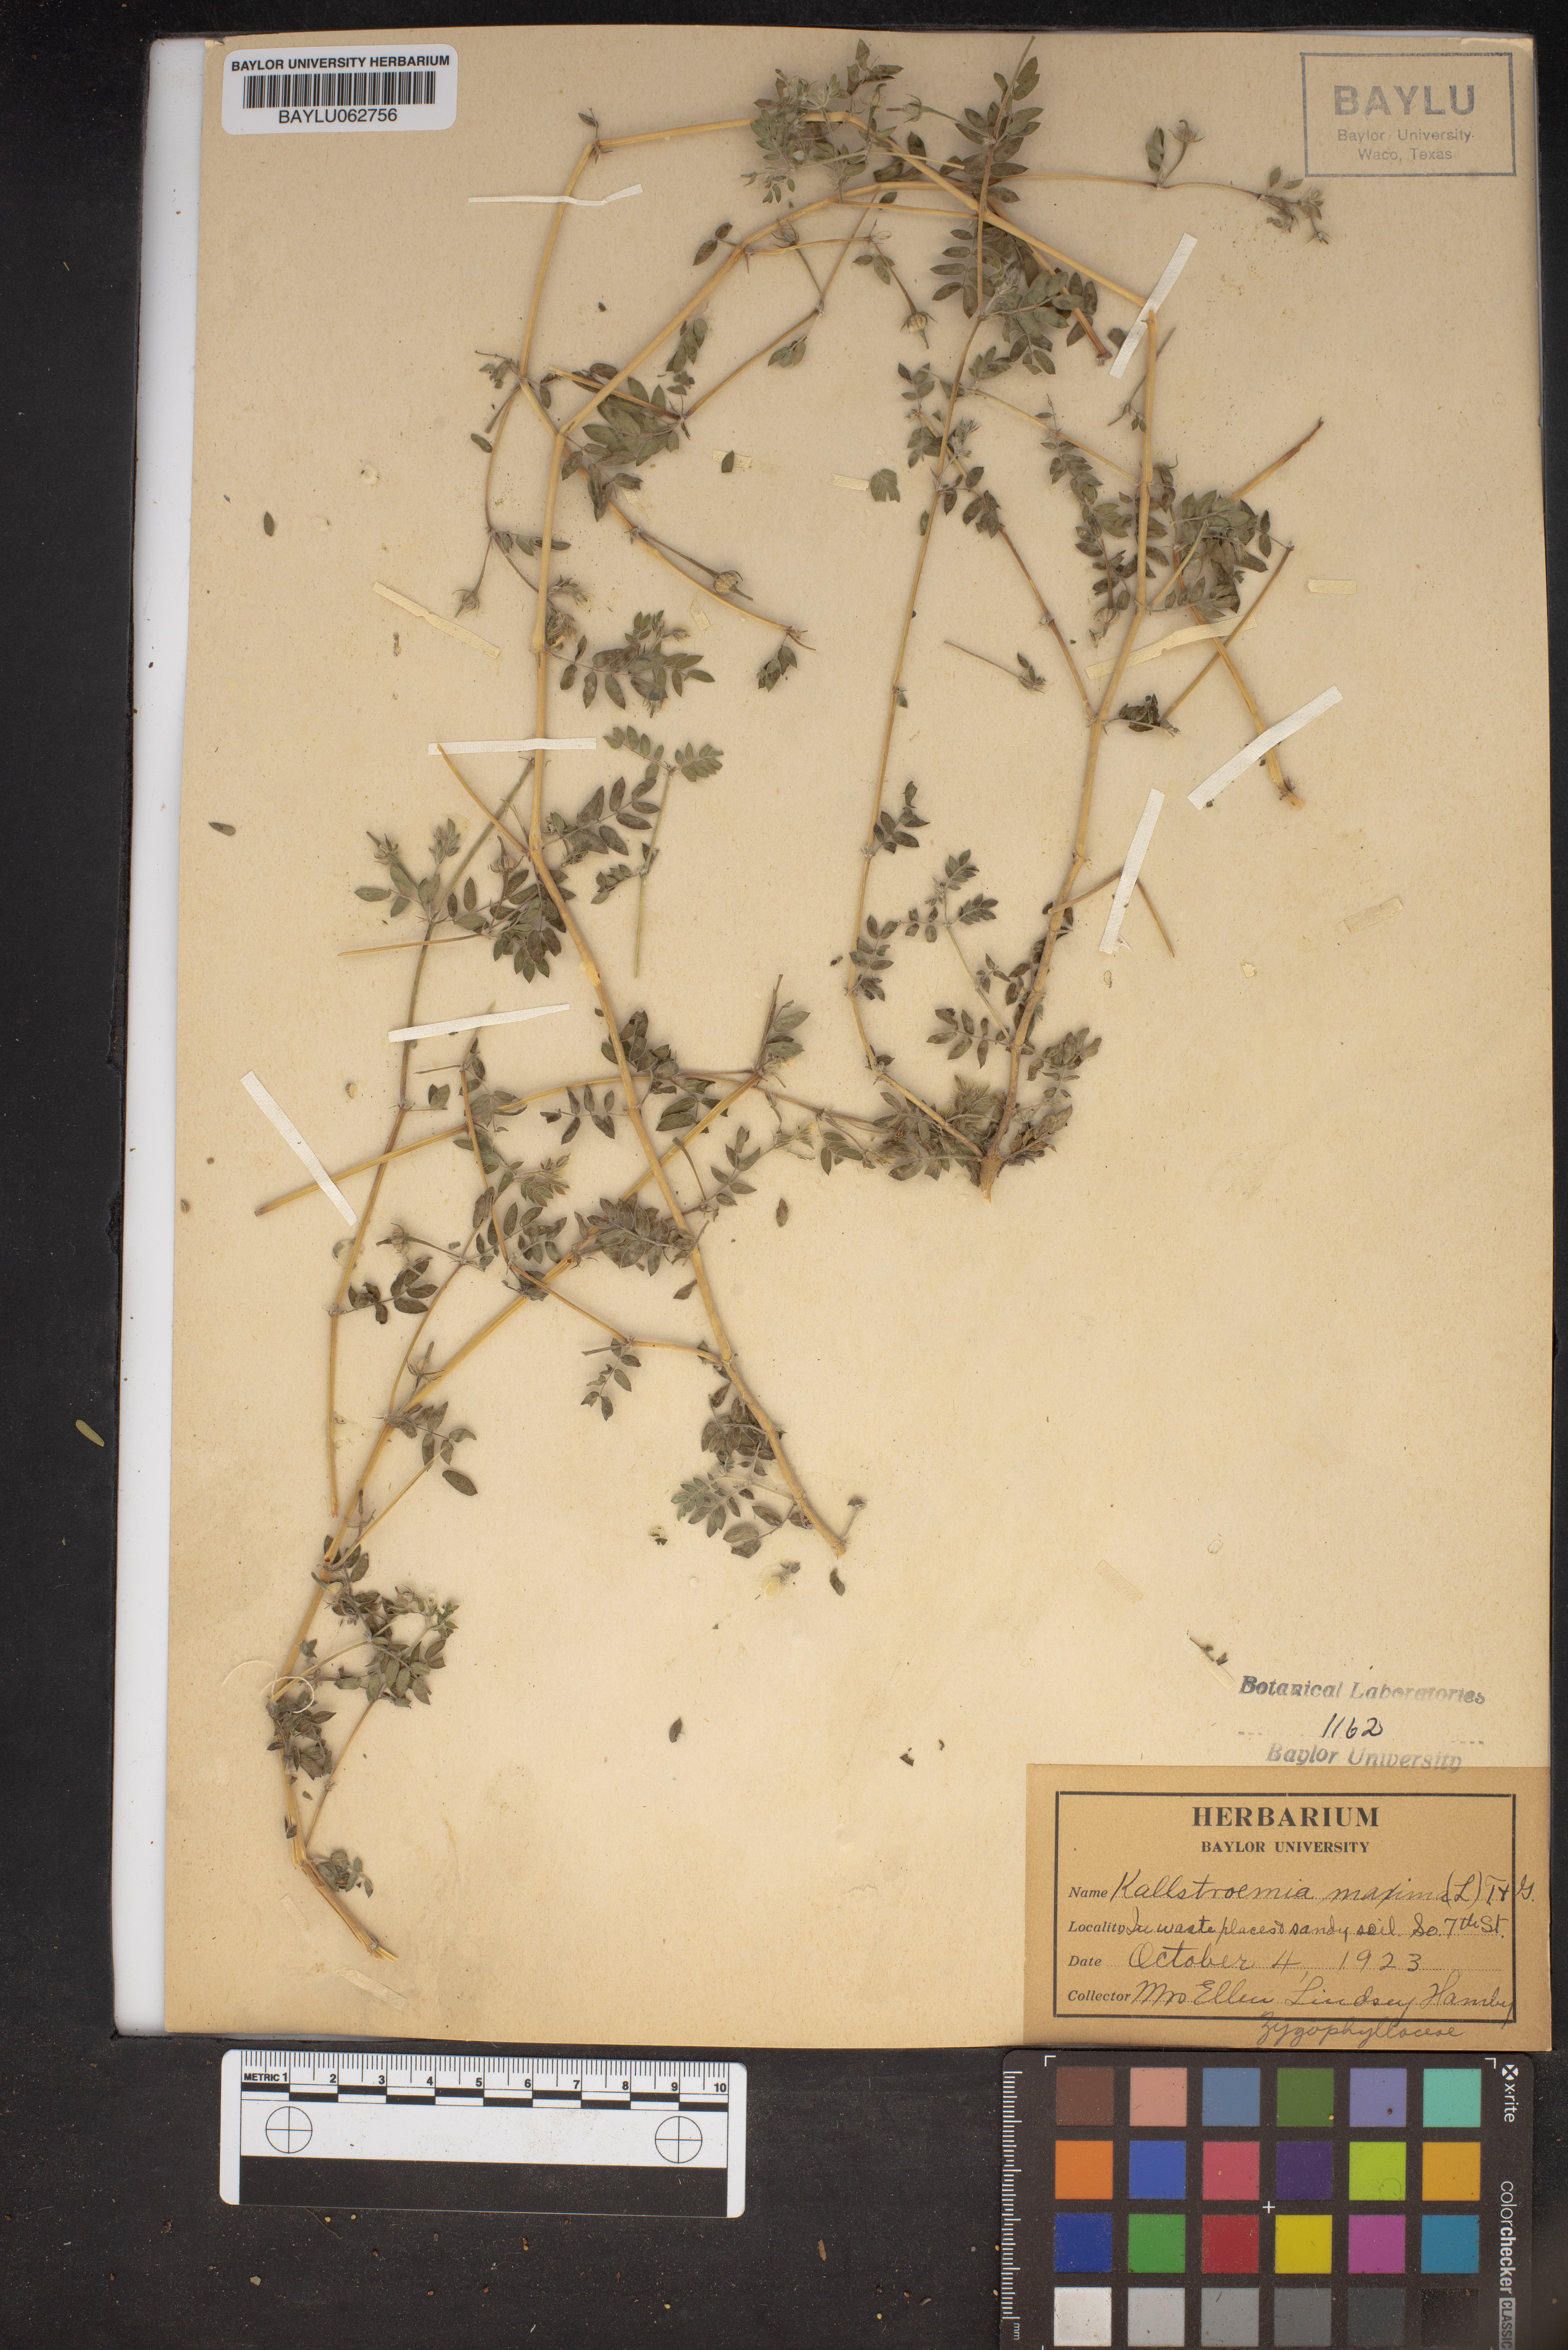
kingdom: Plantae
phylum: Tracheophyta
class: Magnoliopsida
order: Zygophyllales
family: Zygophyllaceae
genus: Kallstroemia
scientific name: Kallstroemia maxima
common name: Big caltropa
